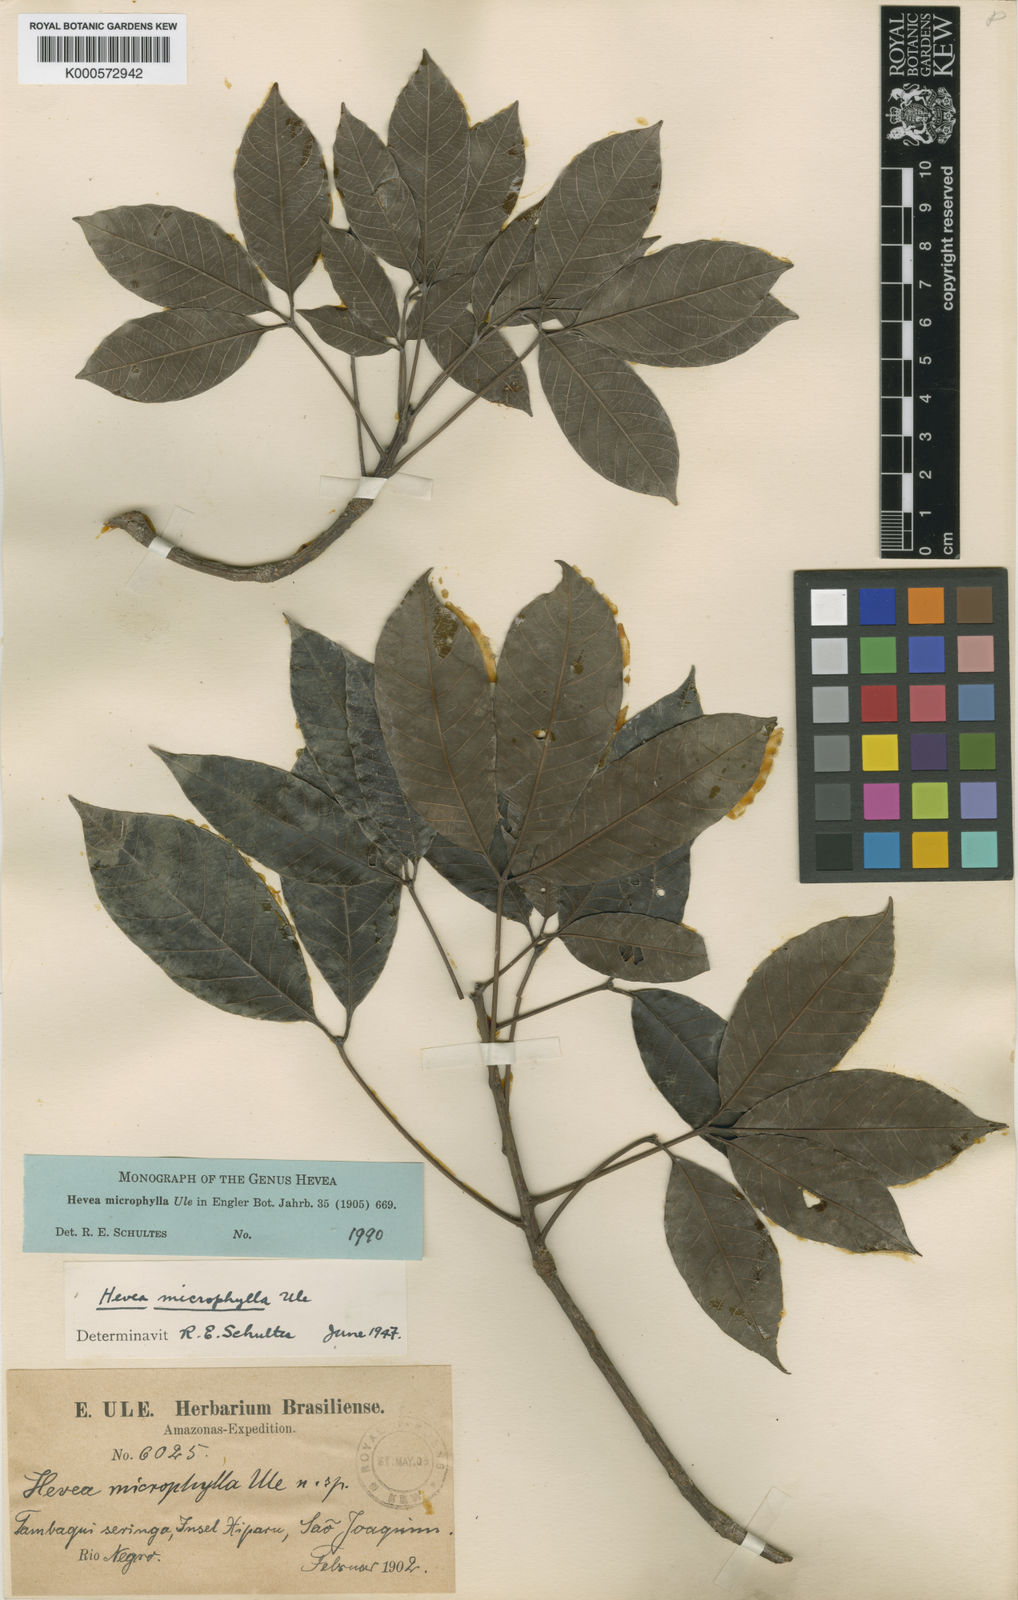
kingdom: Plantae
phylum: Tracheophyta
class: Magnoliopsida
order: Malpighiales
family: Euphorbiaceae
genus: Hevea
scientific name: Hevea microphylla
